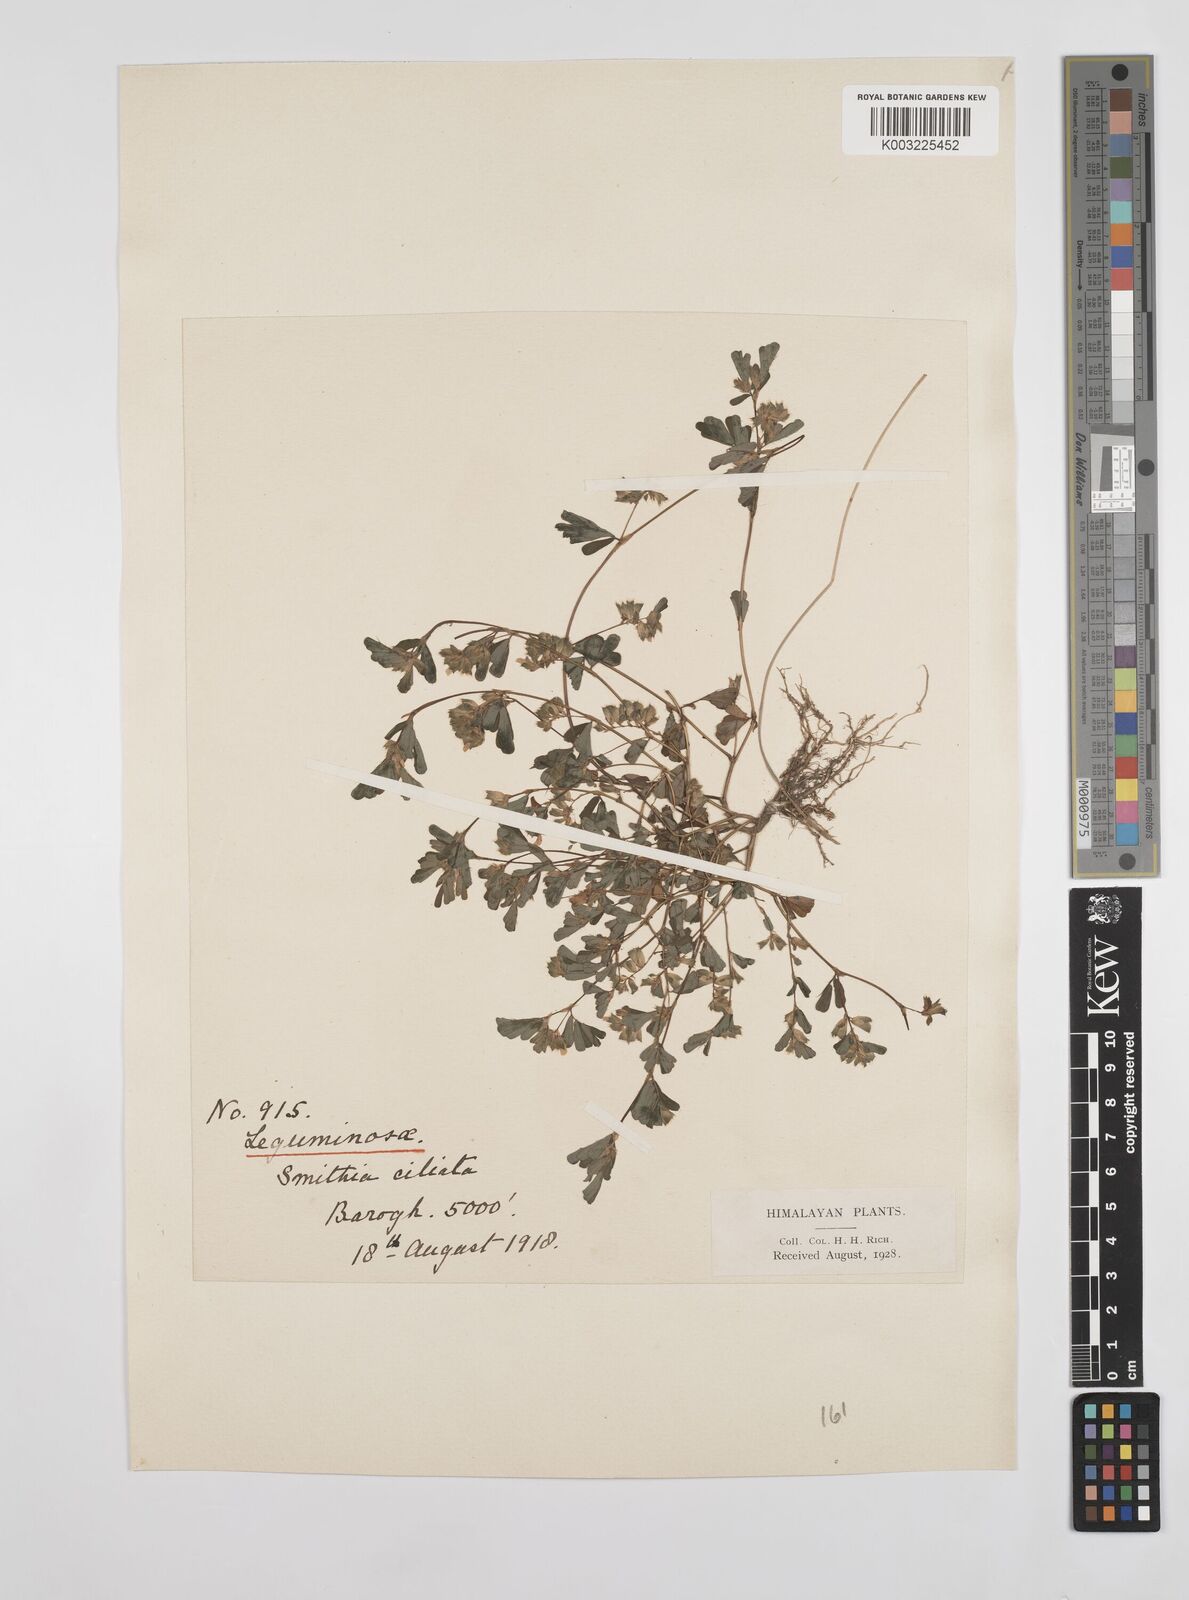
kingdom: Plantae
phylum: Tracheophyta
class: Magnoliopsida
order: Fabales
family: Fabaceae
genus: Smithia
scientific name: Smithia ciliata
